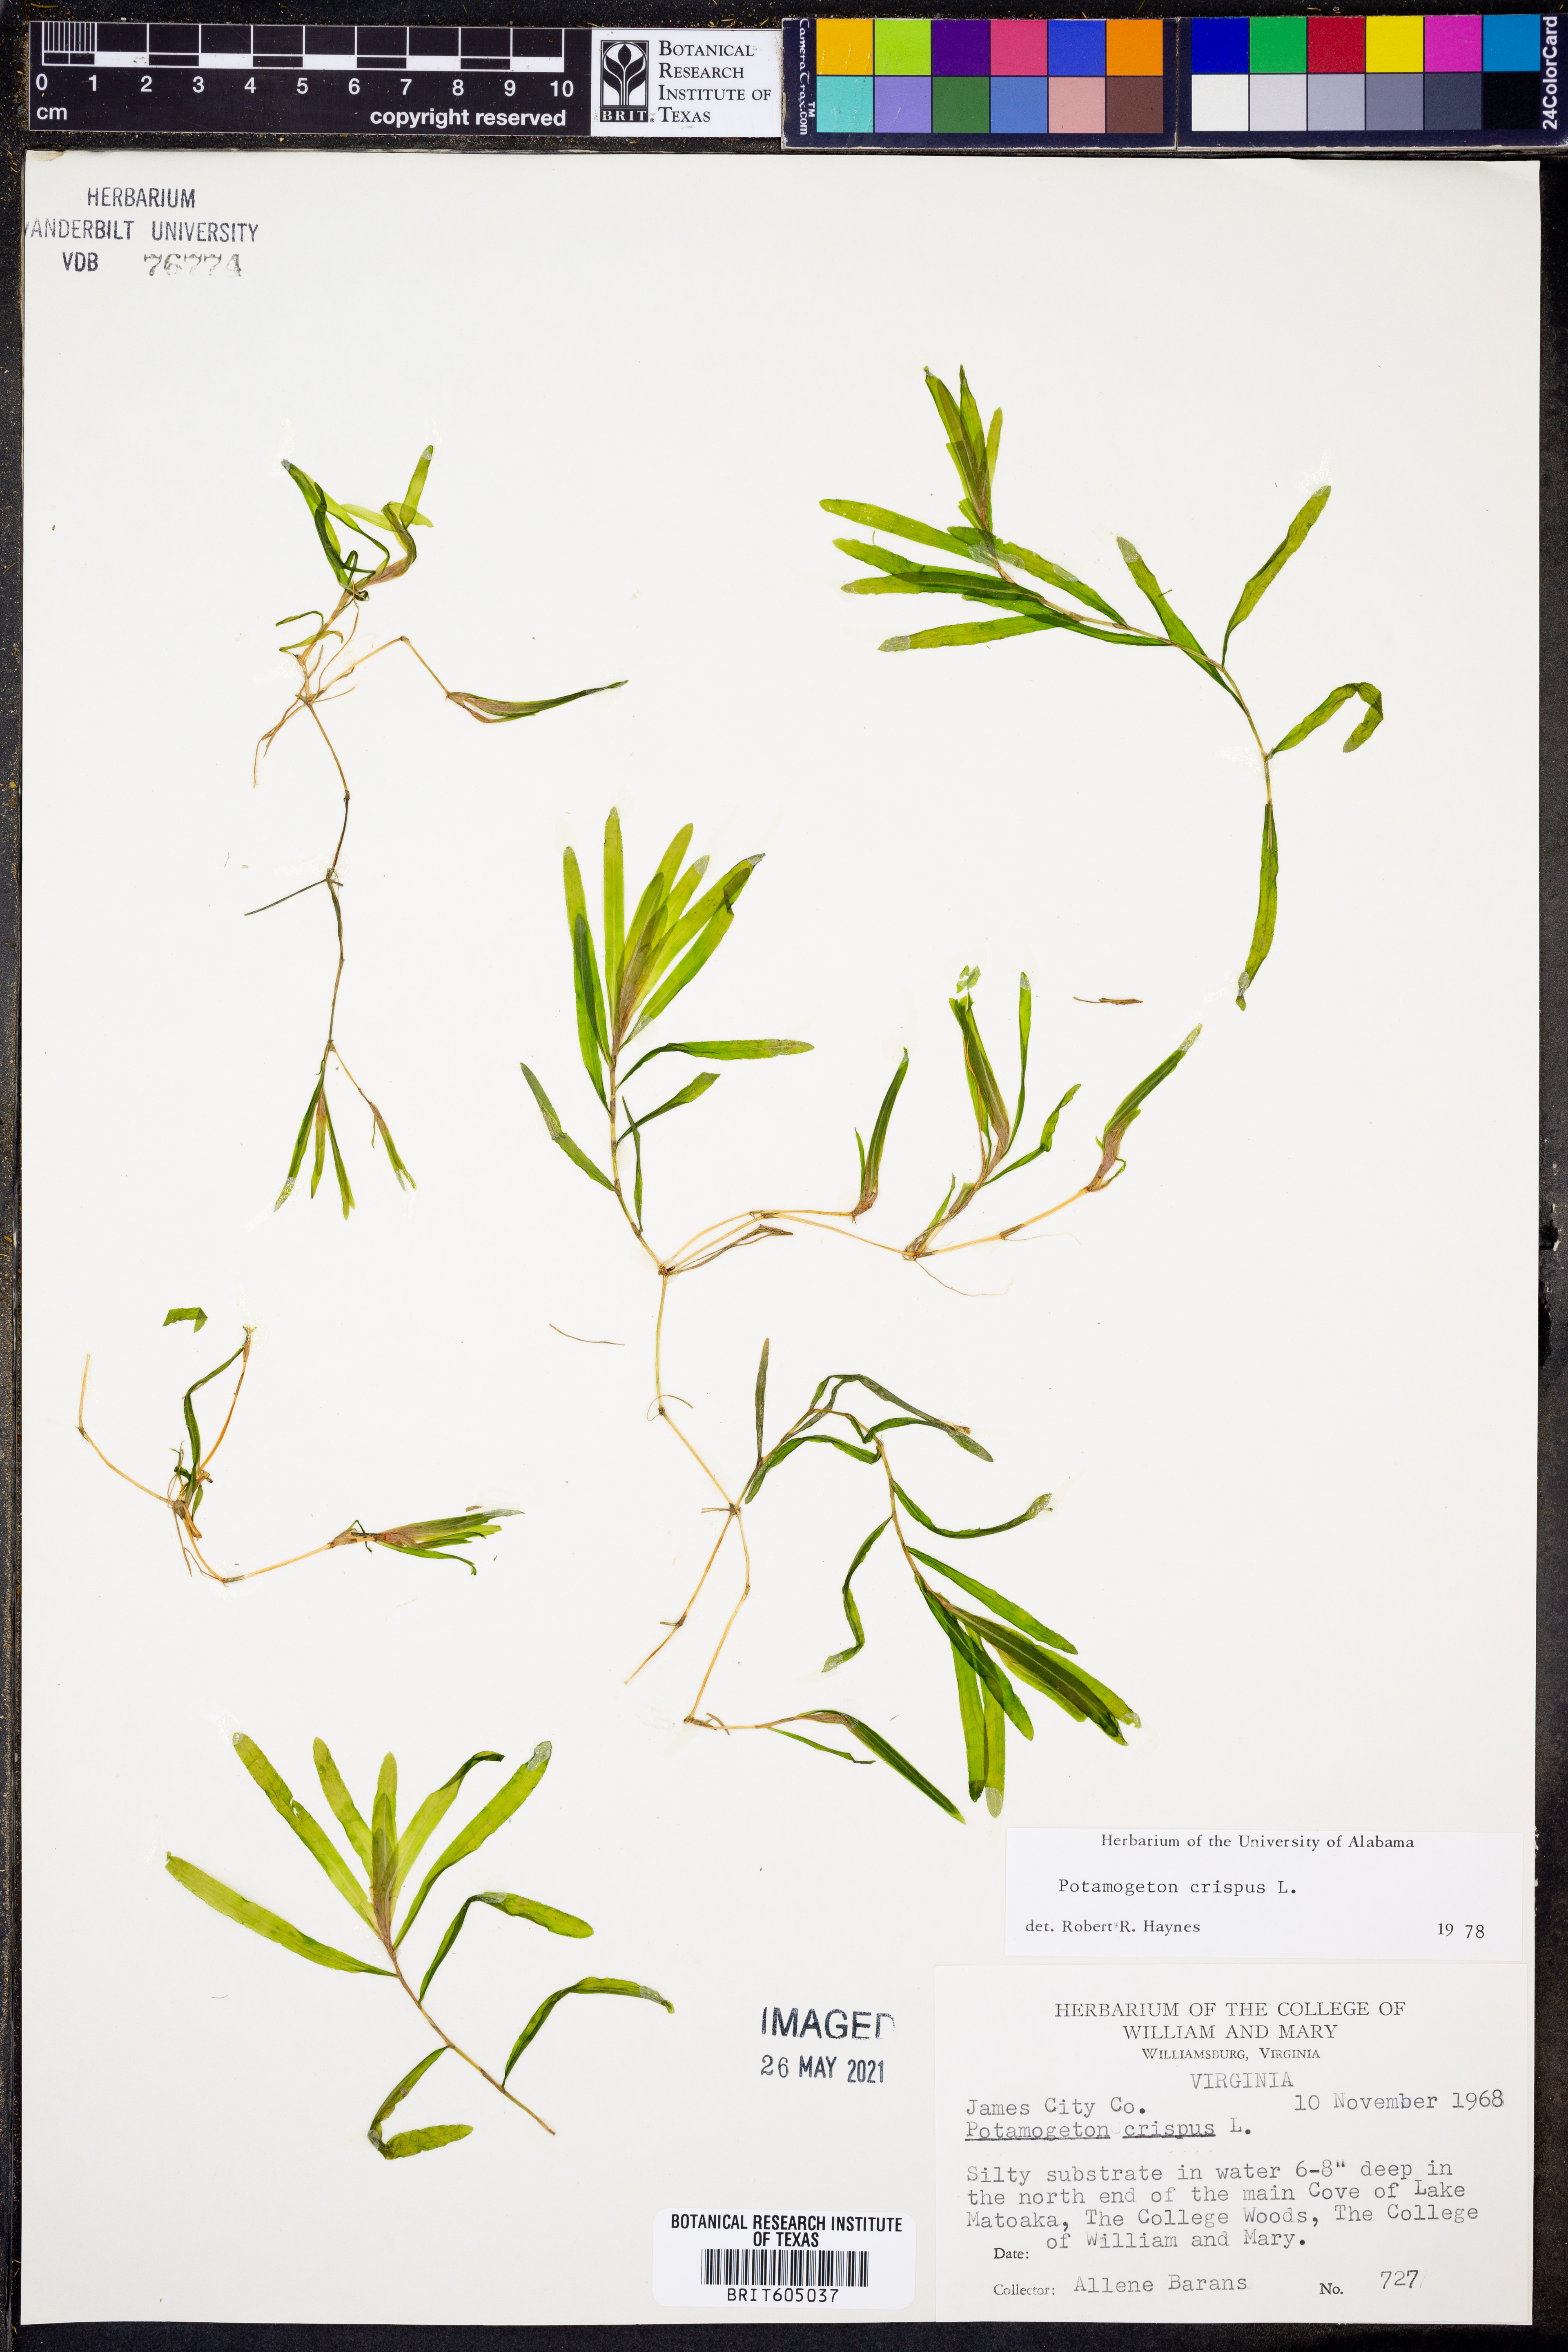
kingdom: Plantae
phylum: Tracheophyta
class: Liliopsida
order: Alismatales
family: Potamogetonaceae
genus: Potamogeton
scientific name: Potamogeton crispus
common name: Curled pondweed
